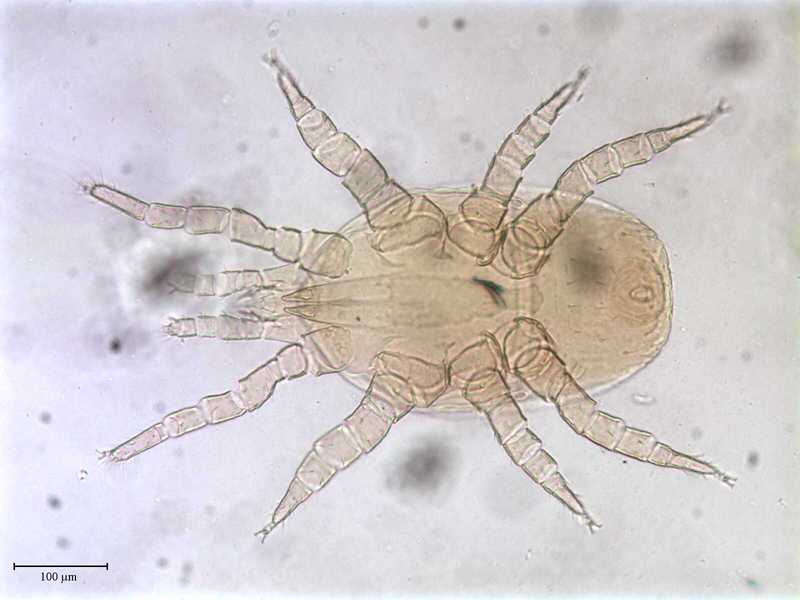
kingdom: Animalia
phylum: Arthropoda
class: Arachnida
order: Mesostigmata
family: Halolaelapidae
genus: Saprolaelaps
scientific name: Saprolaelaps
